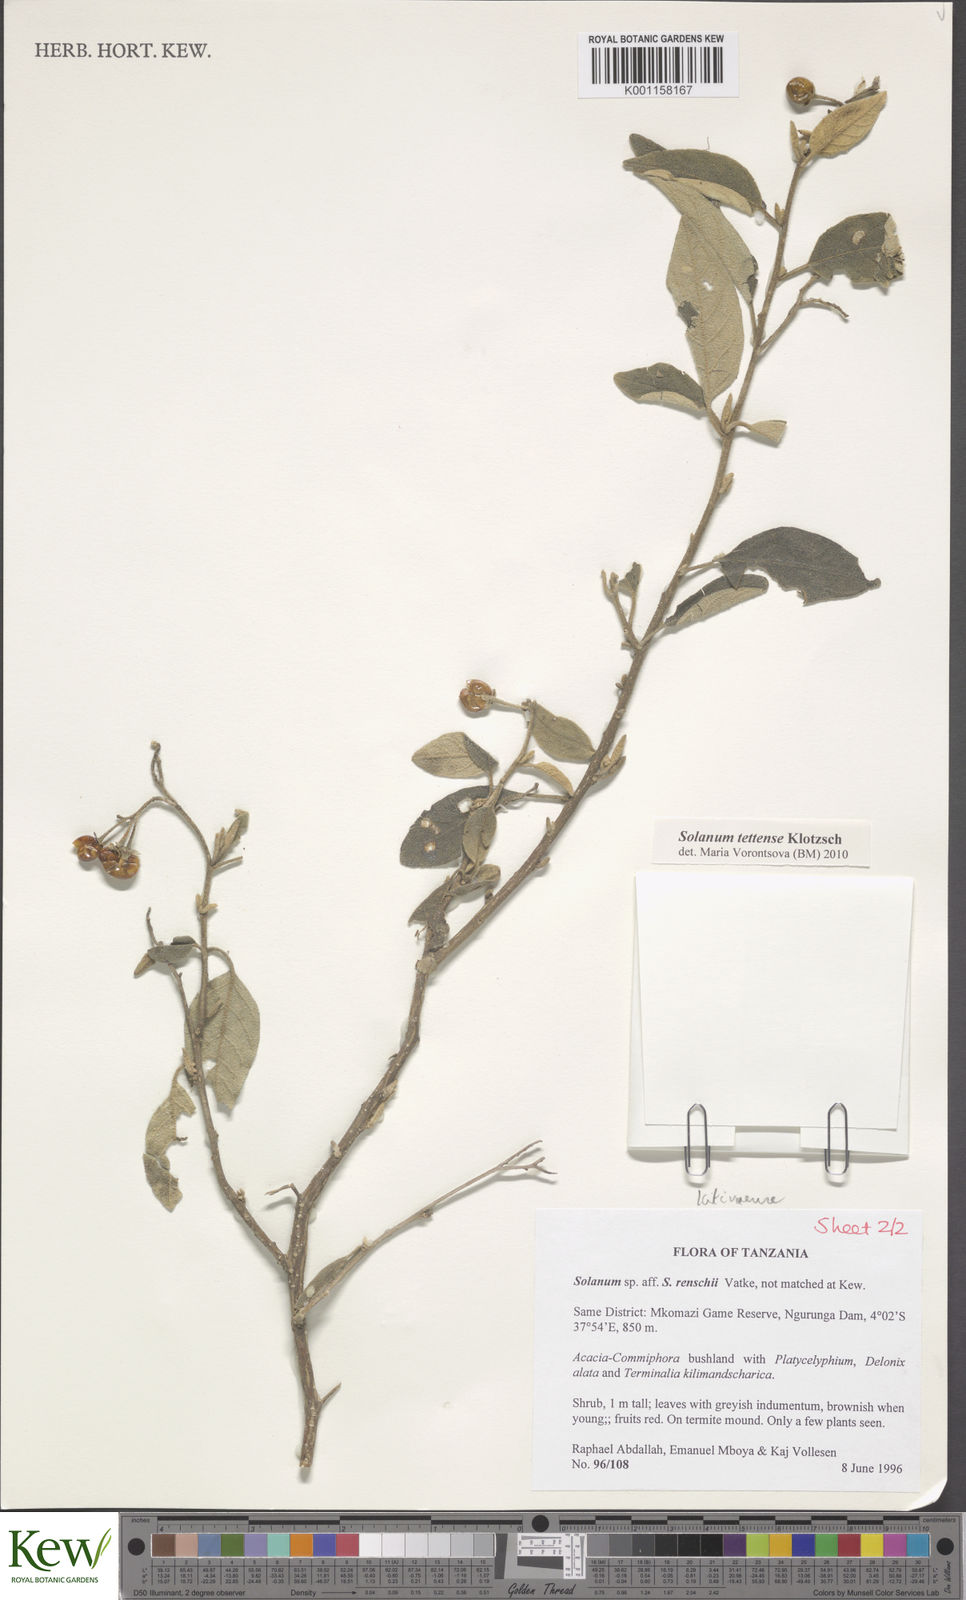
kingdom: Plantae
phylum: Tracheophyta
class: Magnoliopsida
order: Solanales
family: Solanaceae
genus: Solanum
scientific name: Solanum tettense
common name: Mozambique bitter apple
